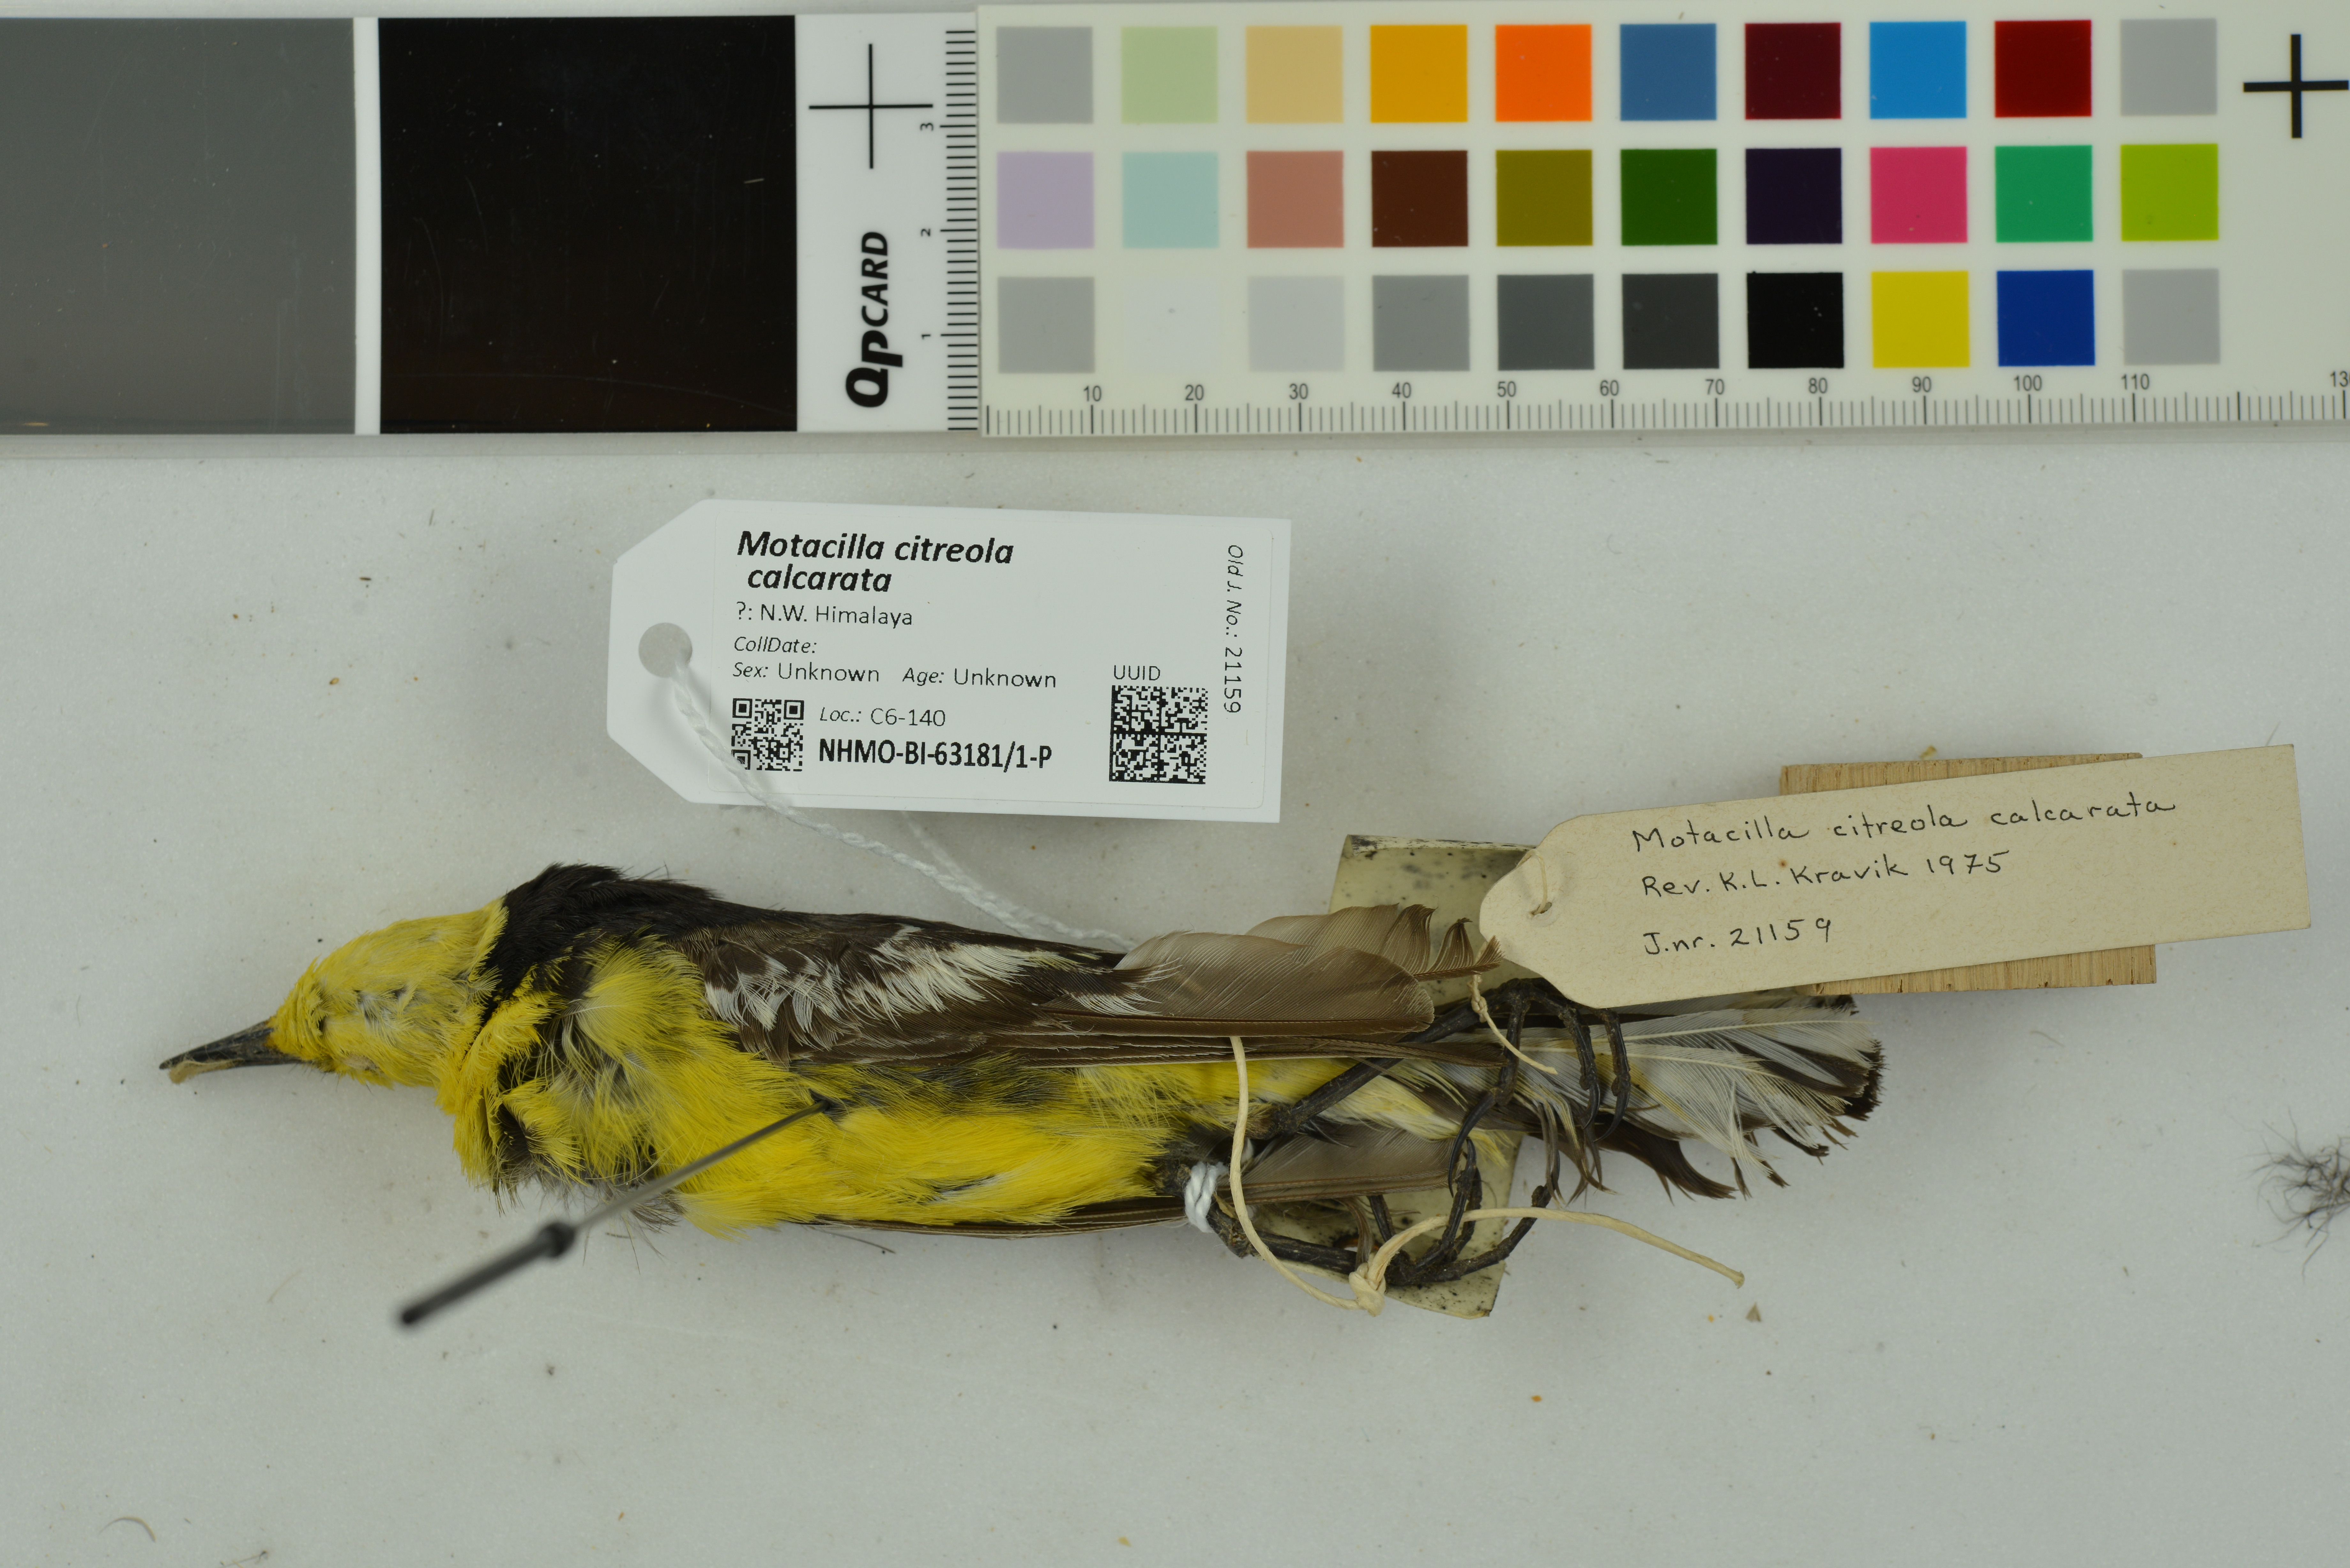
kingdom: Animalia
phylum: Chordata
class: Aves
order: Passeriformes
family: Motacillidae
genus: Motacilla
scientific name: Motacilla citreola
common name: Citrine wagtail
